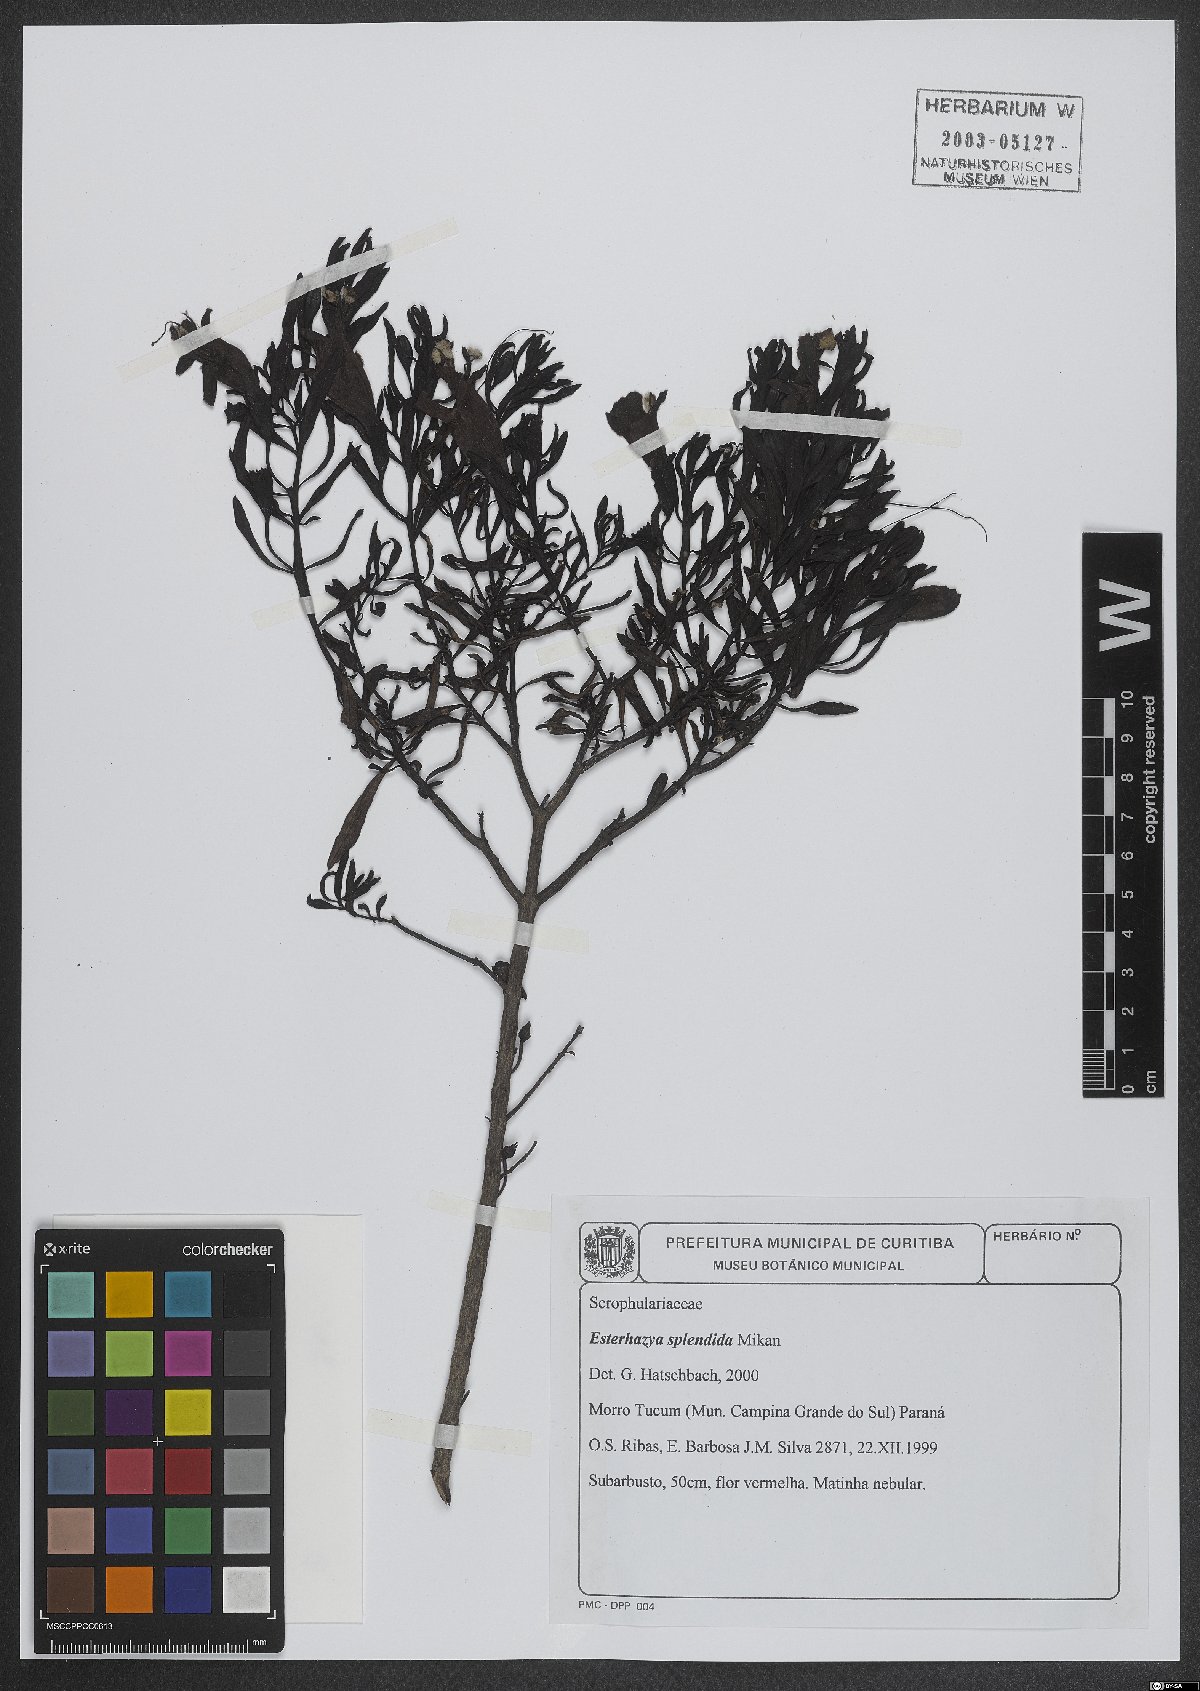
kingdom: Plantae
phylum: Tracheophyta
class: Magnoliopsida
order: Lamiales
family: Orobanchaceae
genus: Esterhazya
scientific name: Esterhazya splendida
